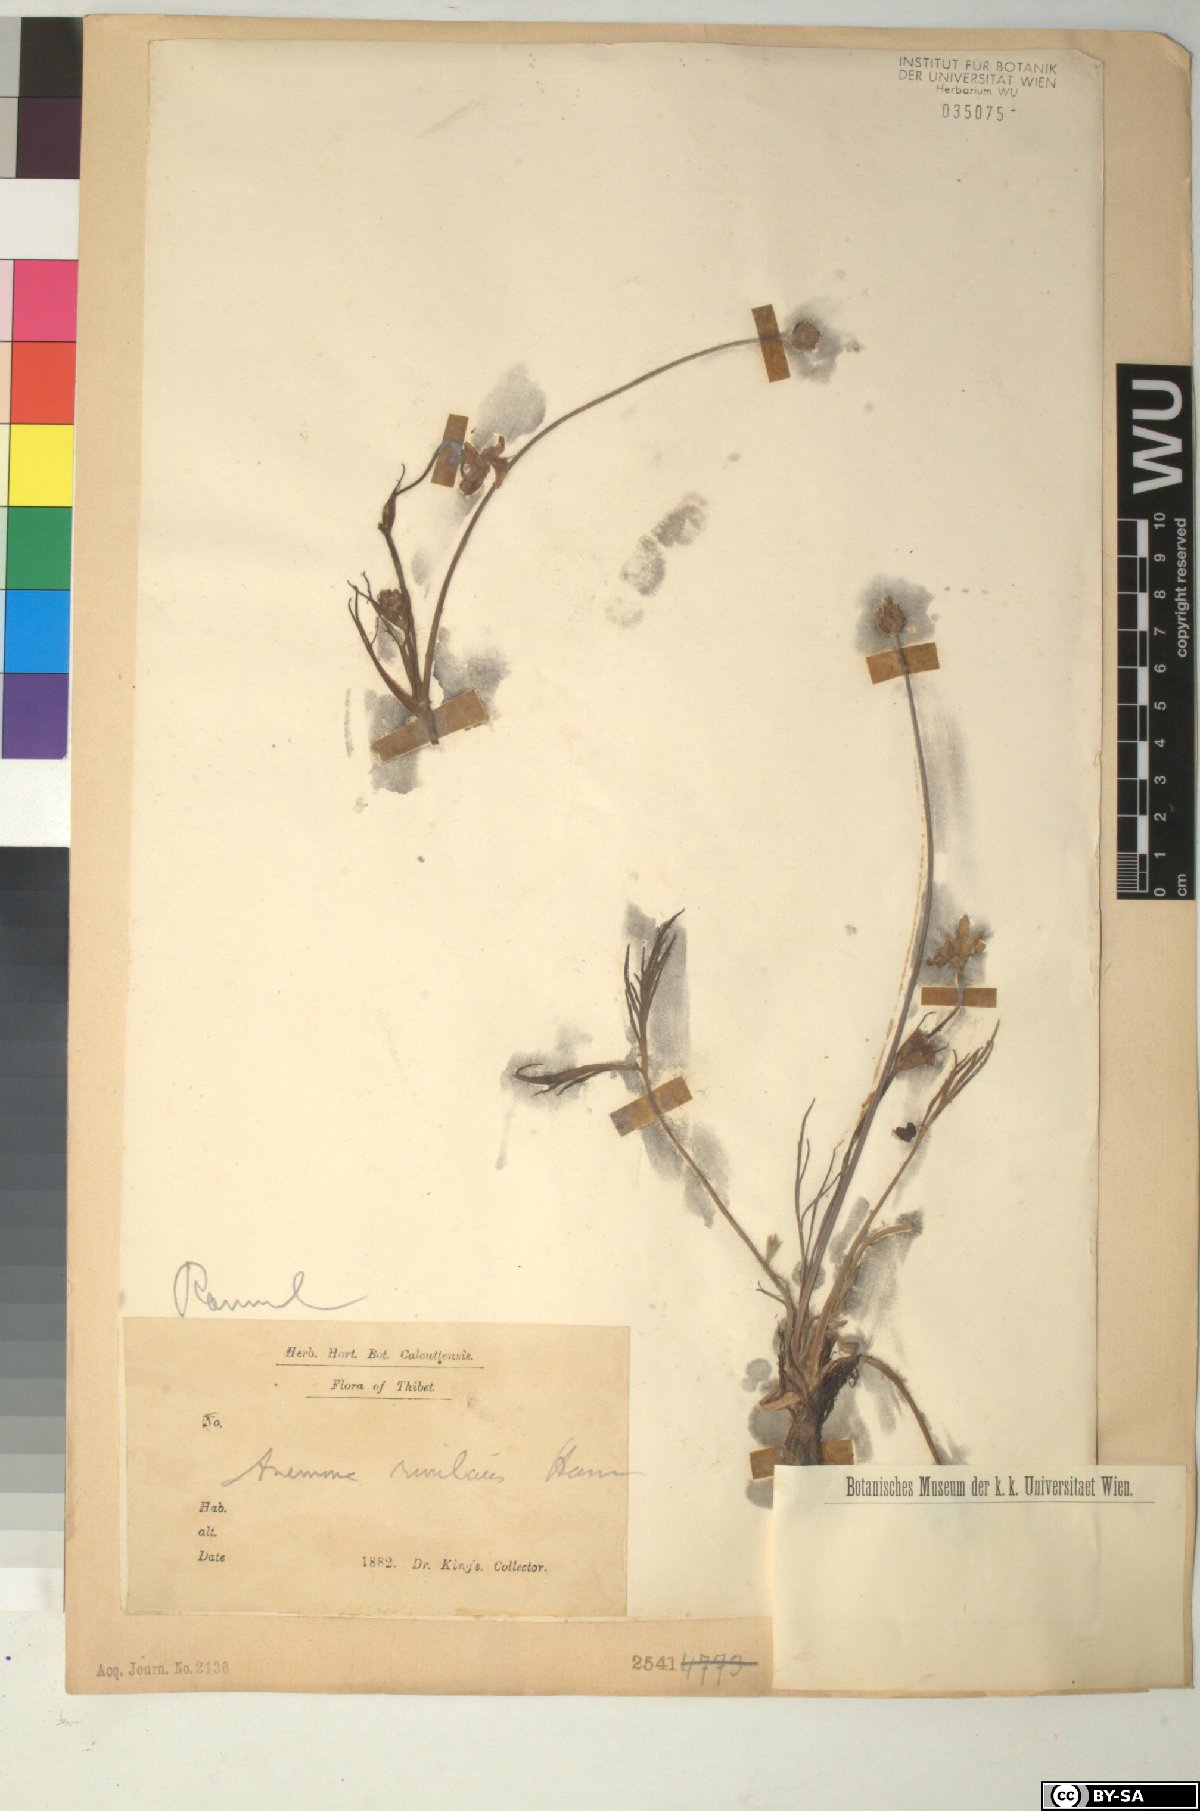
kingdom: Plantae
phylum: Tracheophyta
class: Magnoliopsida
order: Ranunculales
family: Ranunculaceae
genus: Eriocapitella
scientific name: Eriocapitella rivularis
